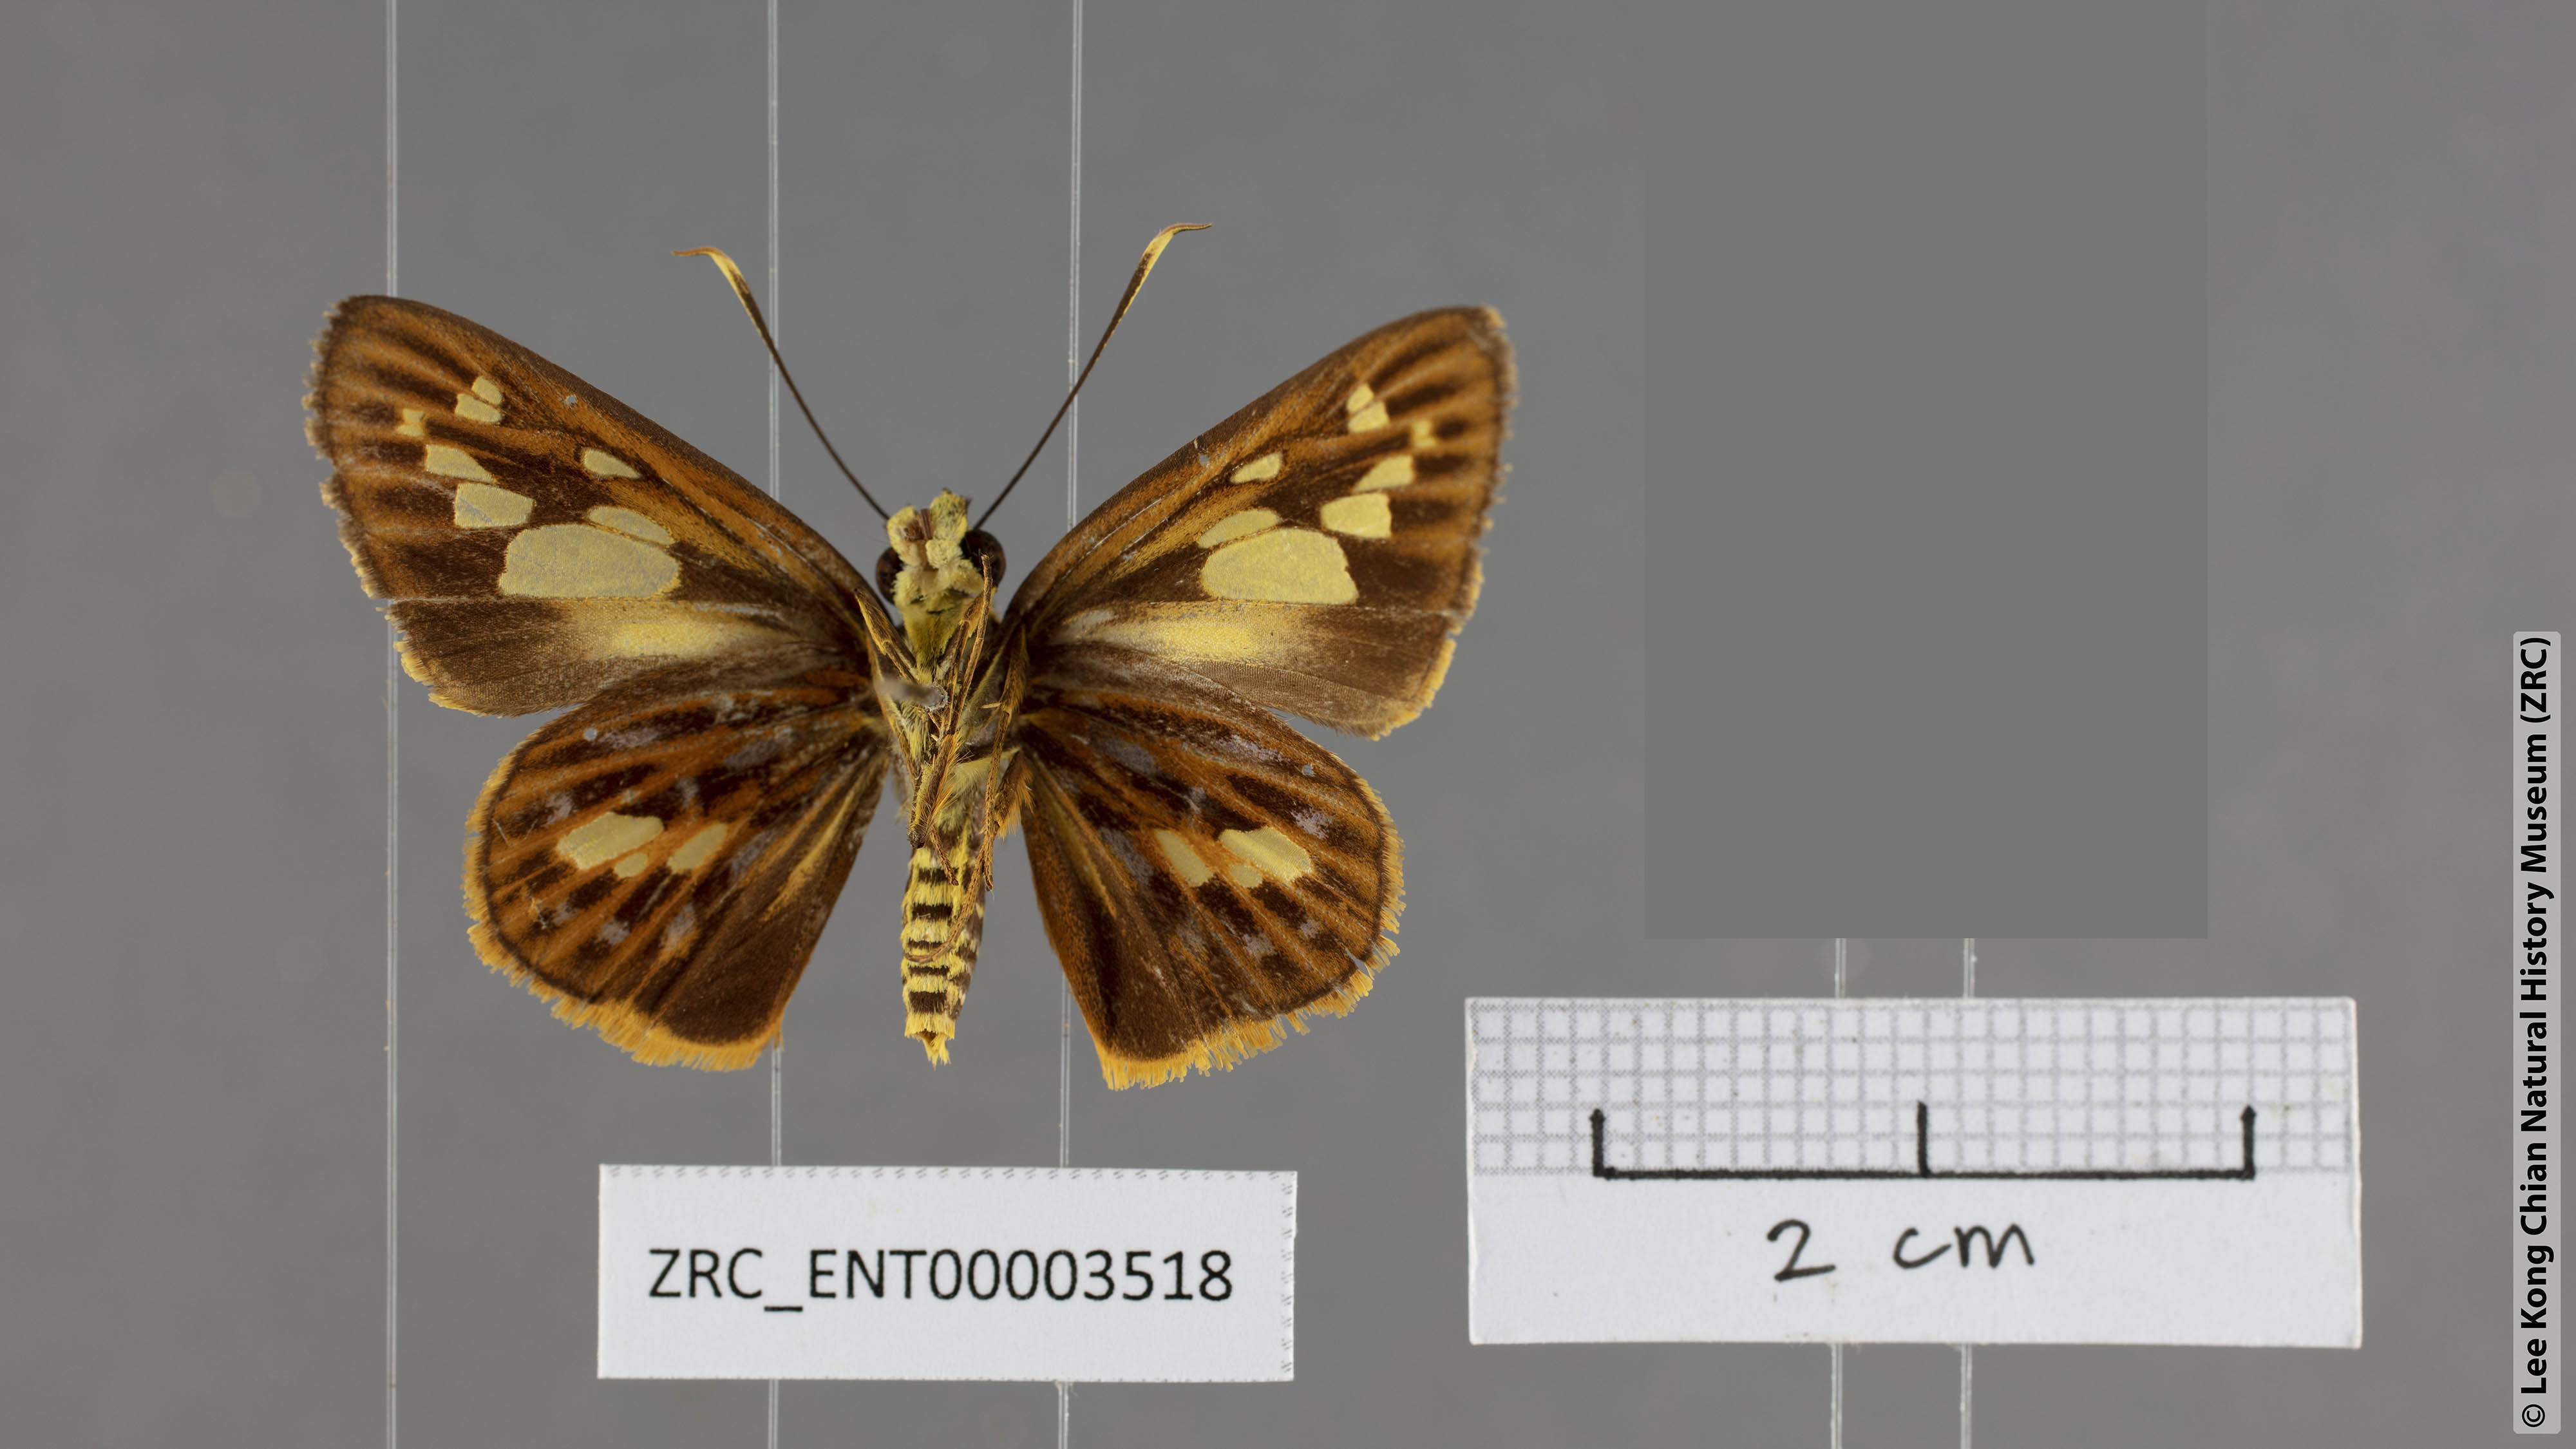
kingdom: Animalia
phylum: Arthropoda
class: Insecta
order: Lepidoptera
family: Hesperiidae
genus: Pyroneura
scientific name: Pyroneura niasana
